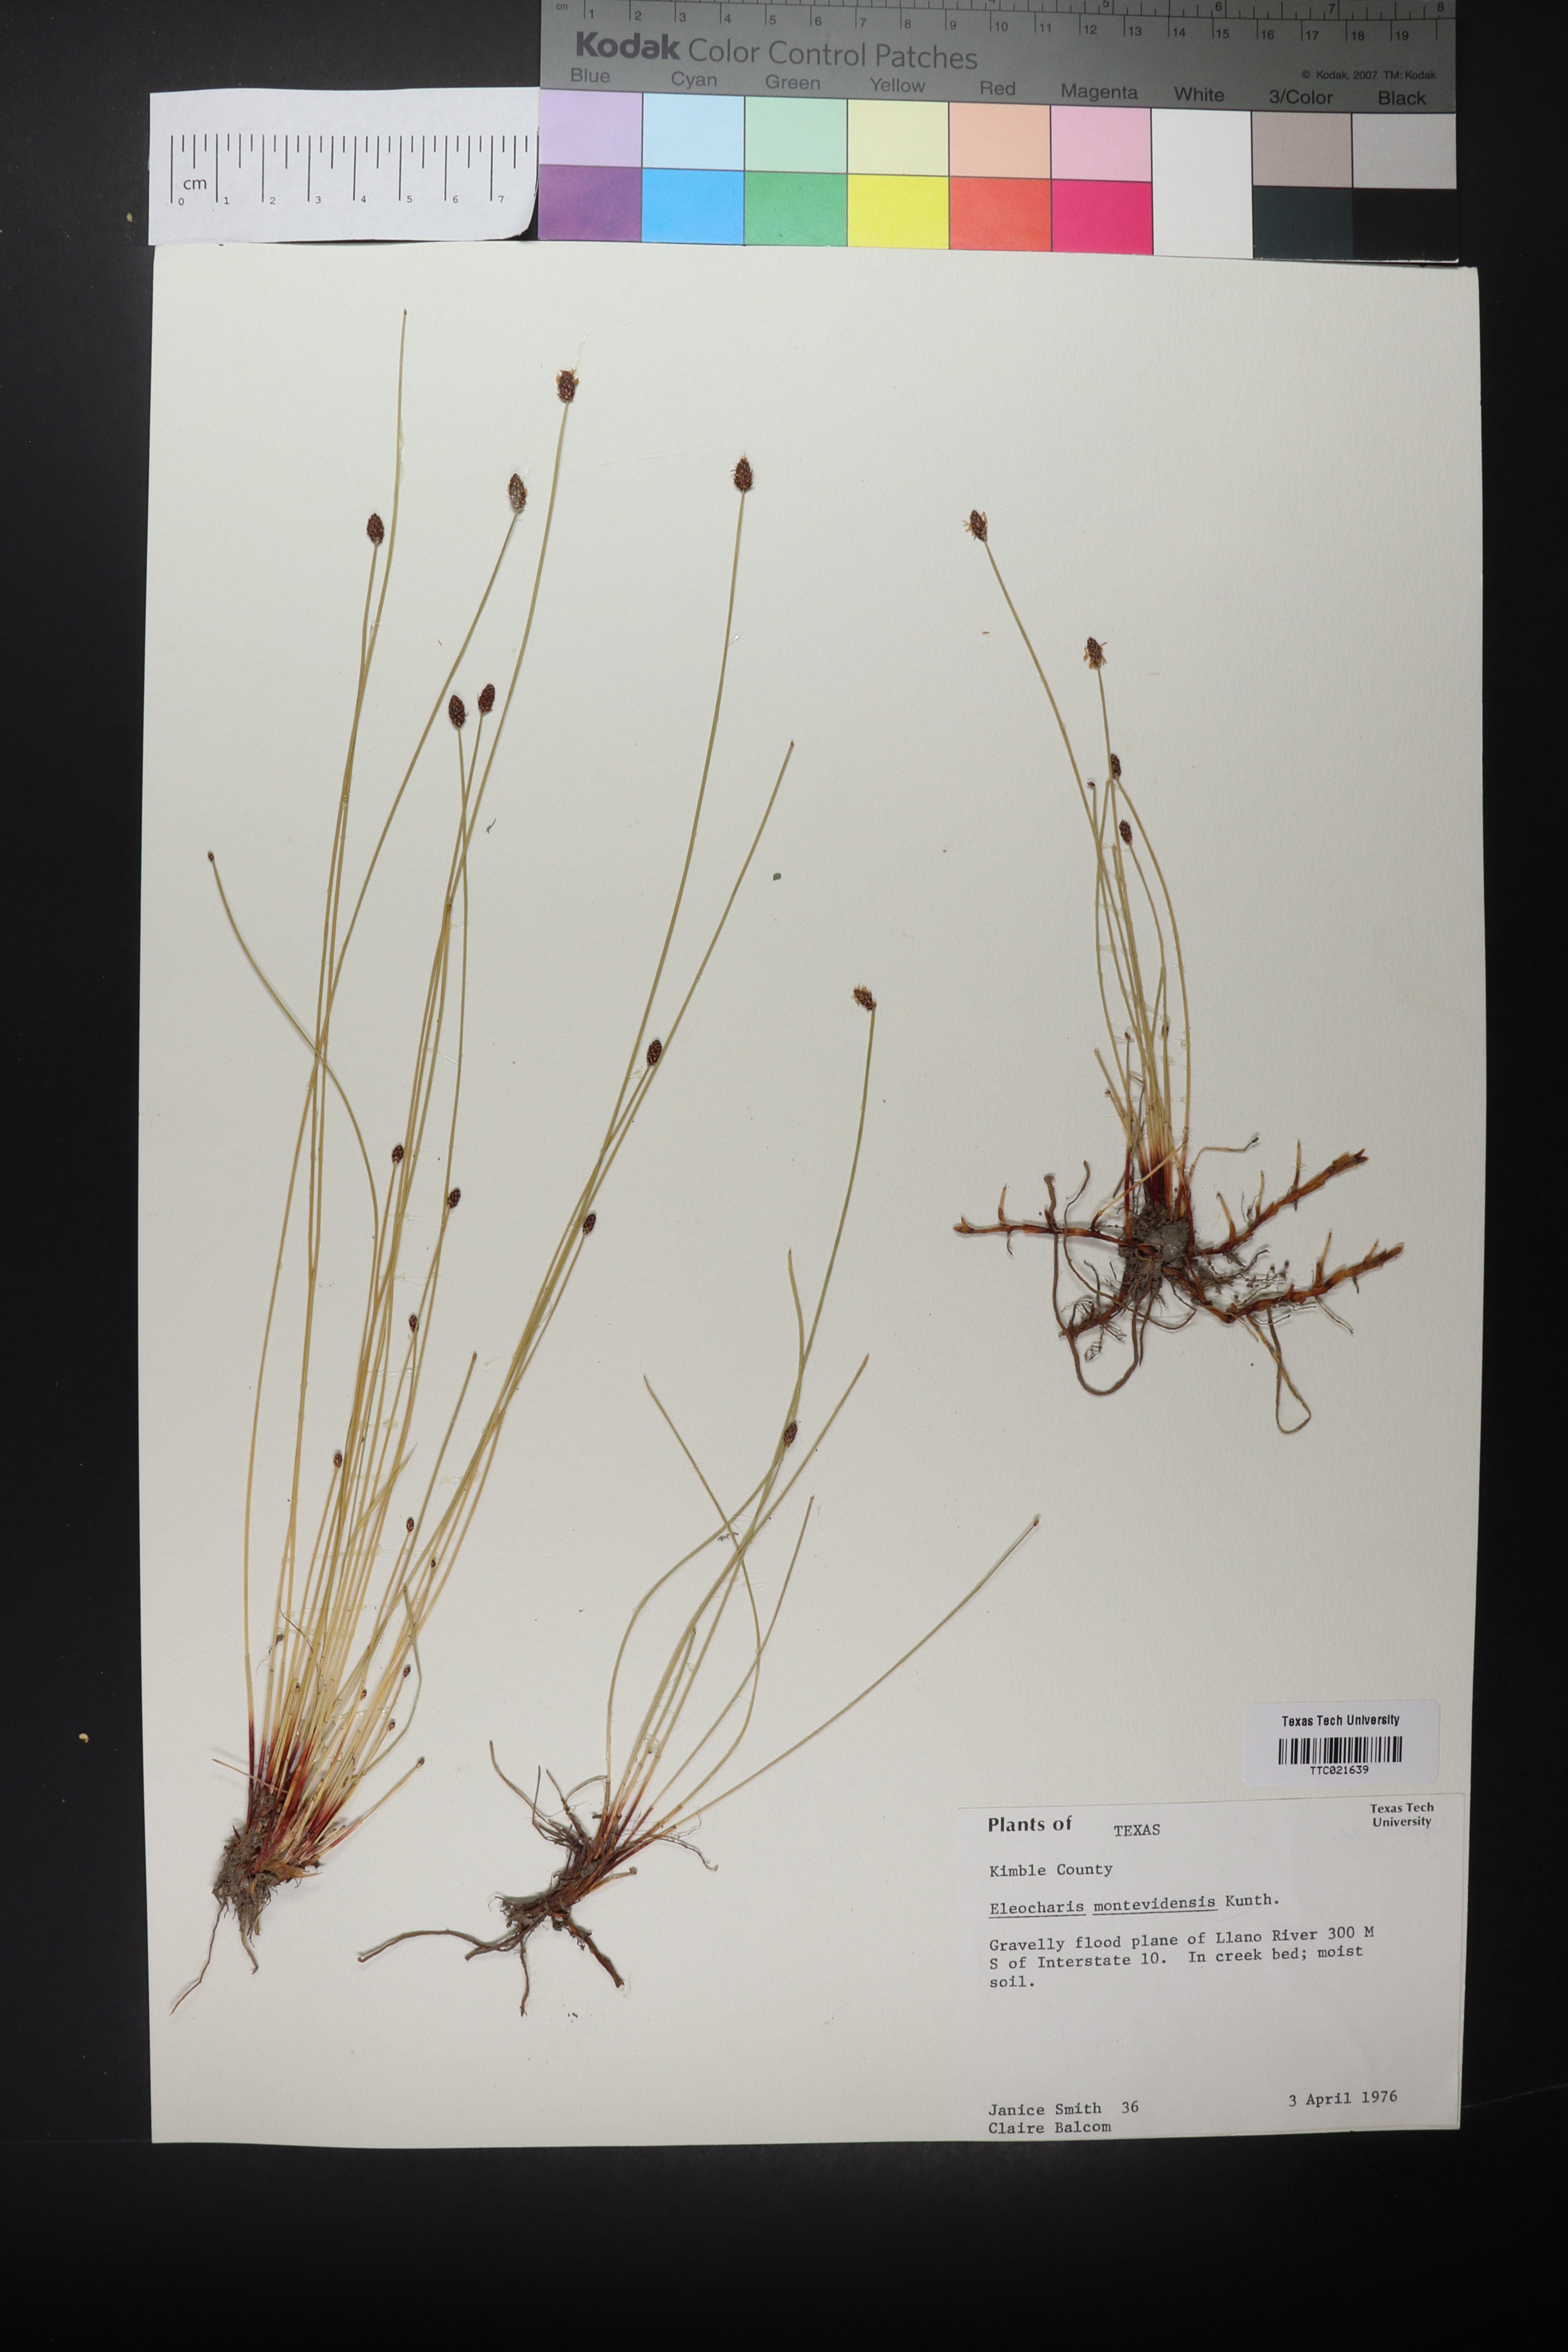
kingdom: Plantae
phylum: Tracheophyta
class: Liliopsida
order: Poales
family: Cyperaceae
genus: Eleocharis
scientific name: Eleocharis montevidensis
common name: Sand spike-rush
